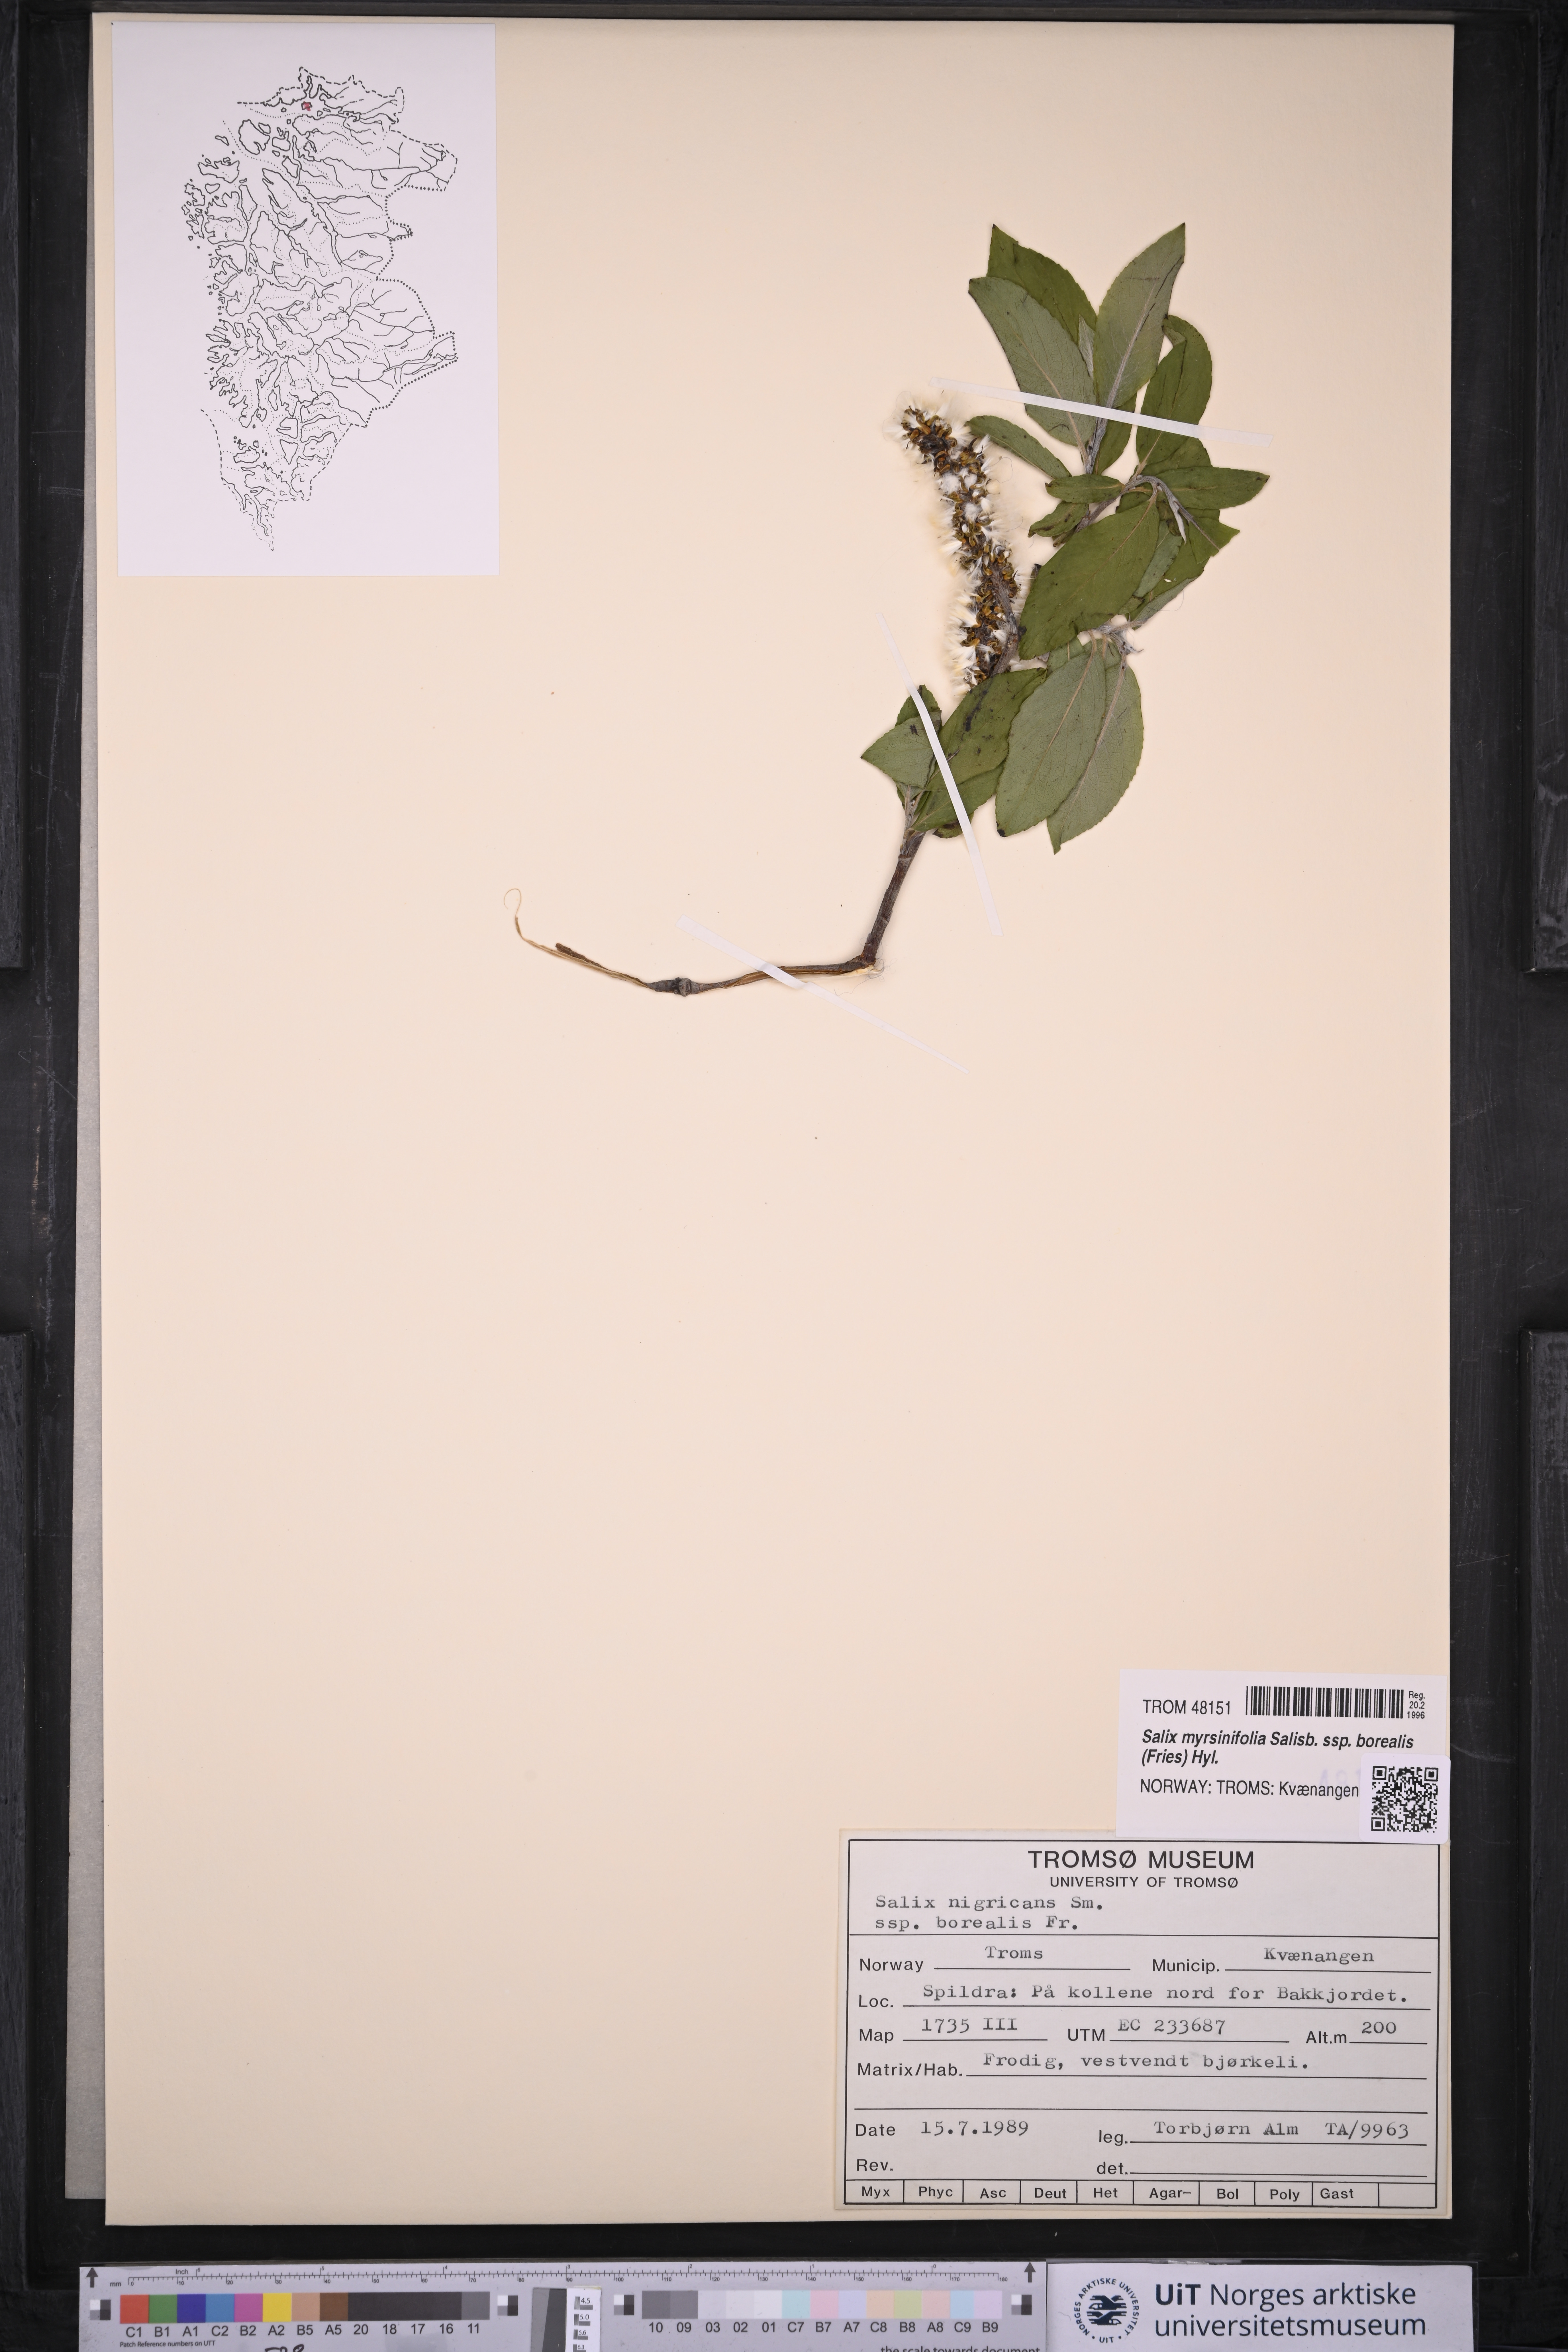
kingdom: Plantae
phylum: Tracheophyta
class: Magnoliopsida
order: Malpighiales
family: Salicaceae
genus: Salix
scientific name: Salix myrsinifolia
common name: Dark-leaved willow
